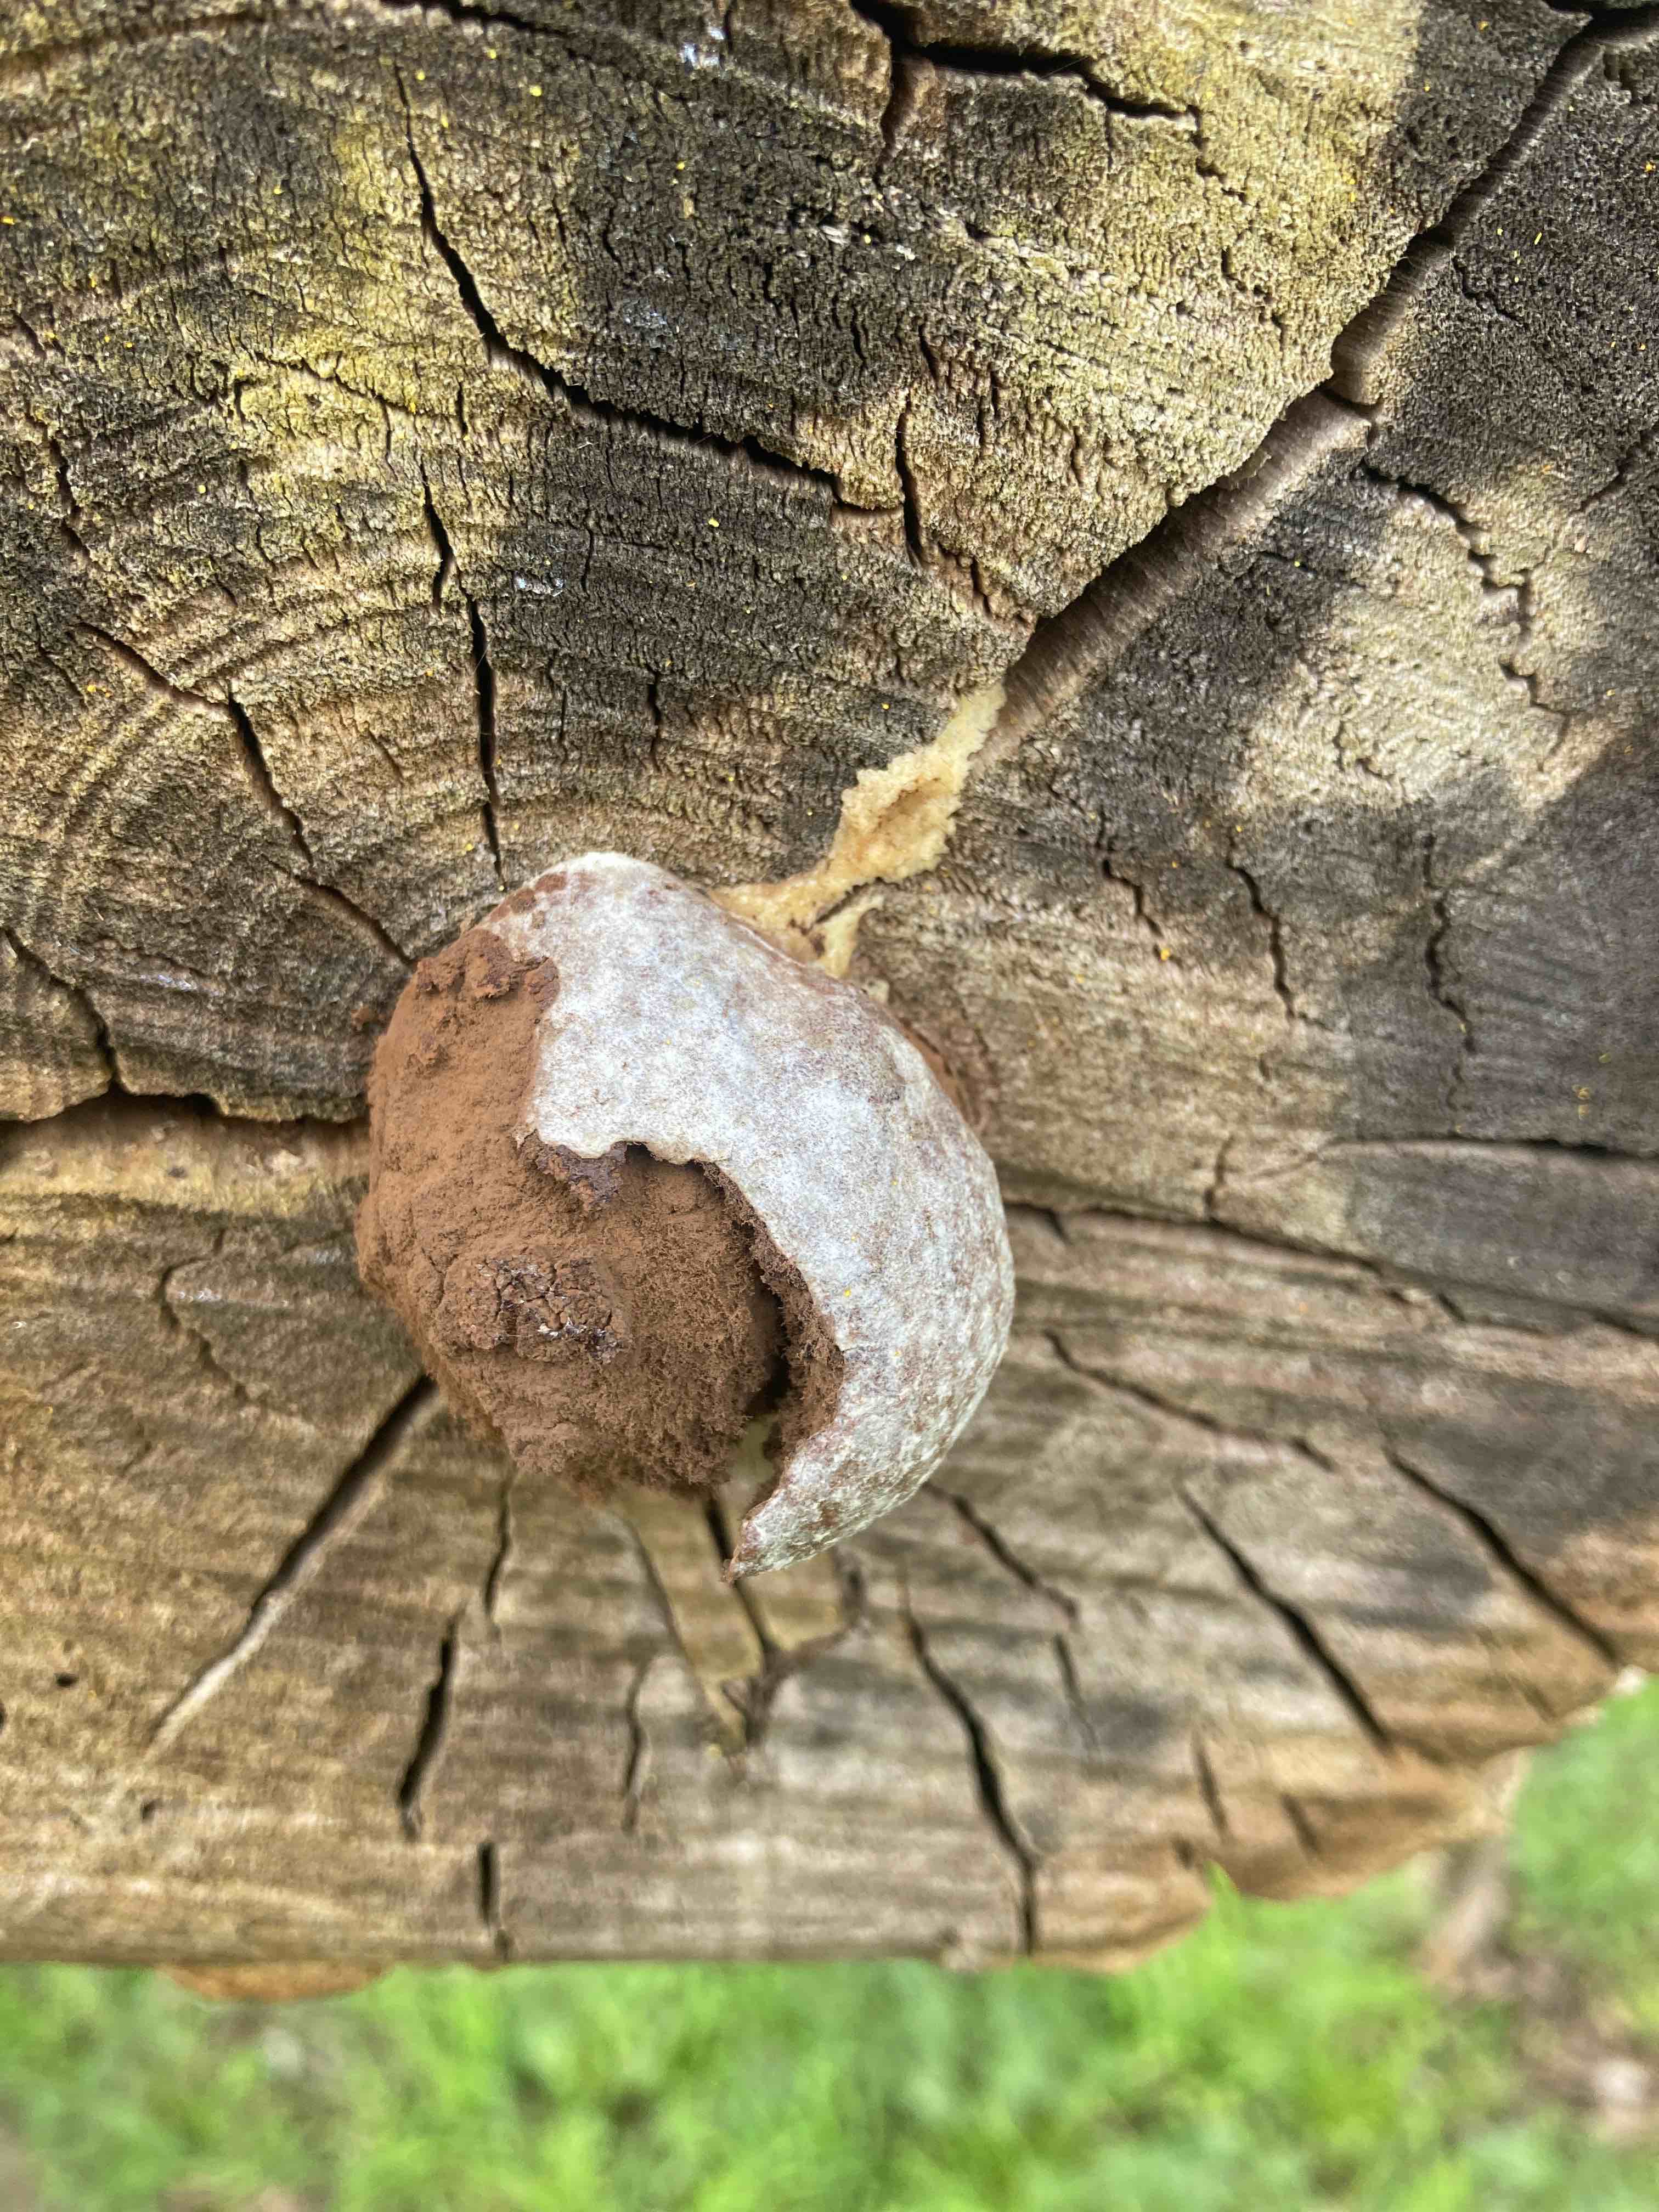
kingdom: Protozoa
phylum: Mycetozoa
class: Myxomycetes
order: Cribrariales
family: Tubiferaceae
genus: Reticularia
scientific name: Reticularia lycoperdon
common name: skinnende støvpude
